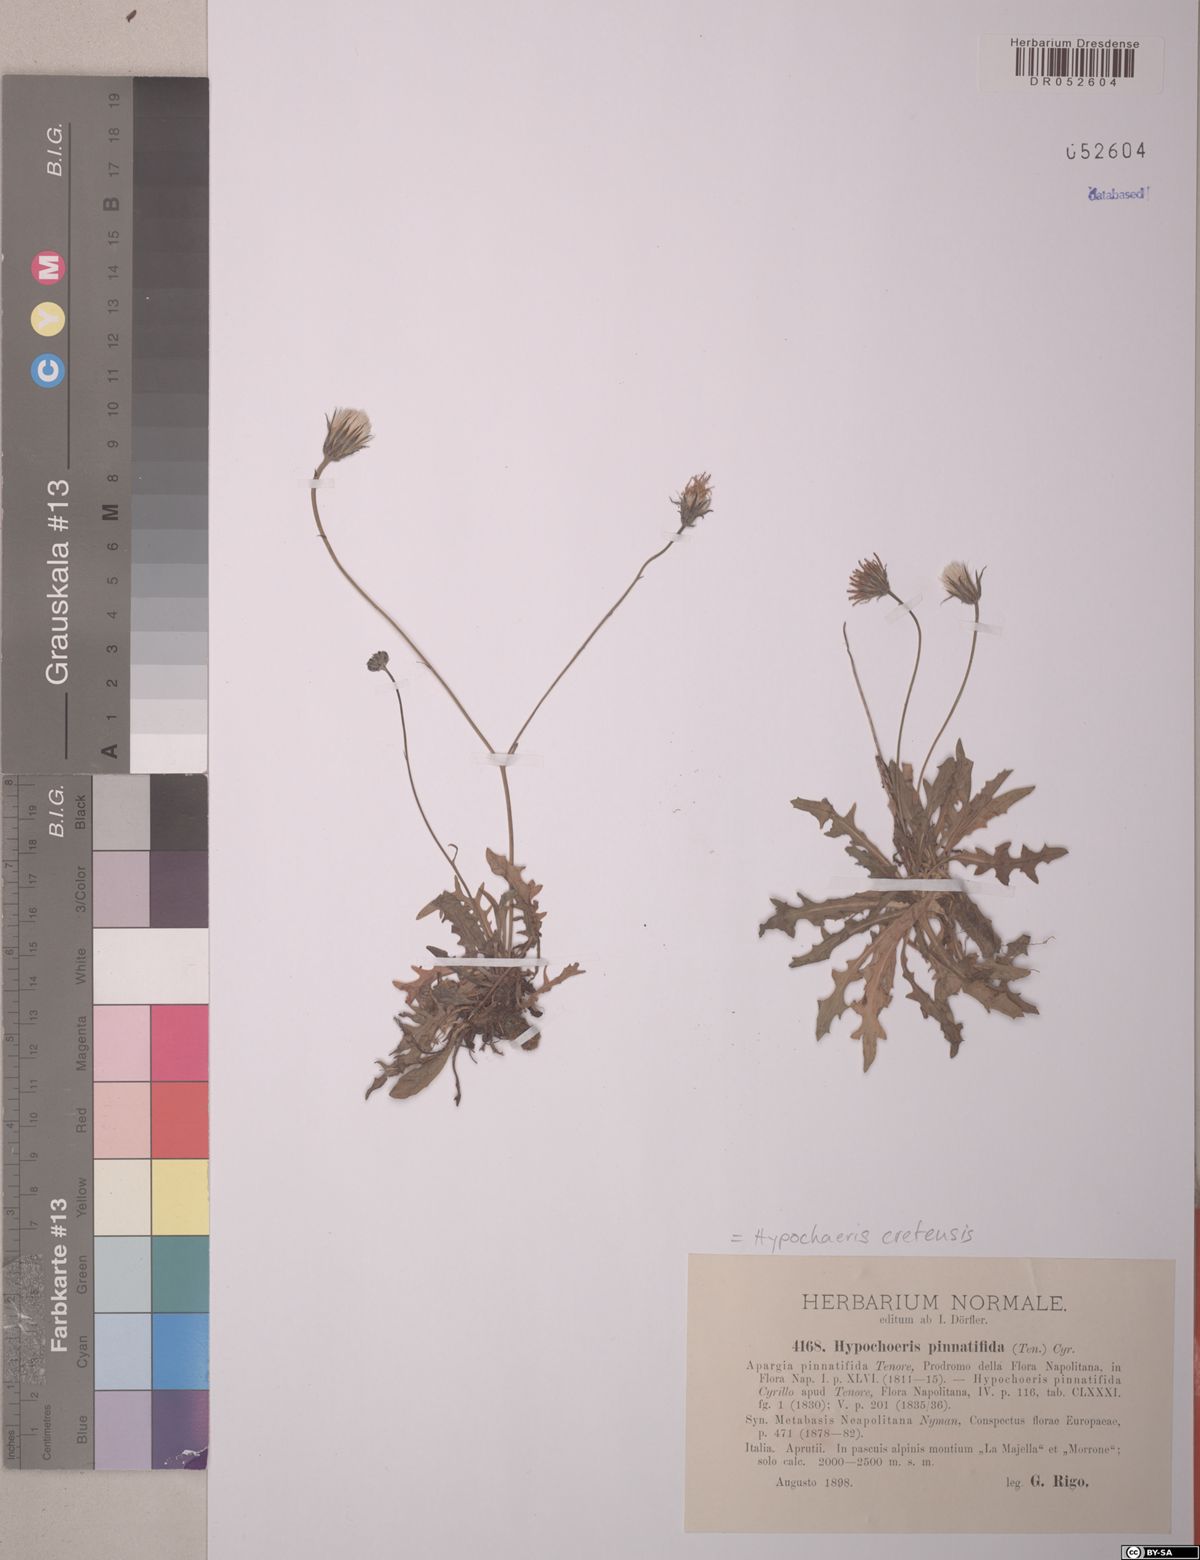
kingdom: Plantae
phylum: Tracheophyta
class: Magnoliopsida
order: Asterales
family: Asteraceae
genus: Hypochaeris
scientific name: Hypochaeris cretensis
